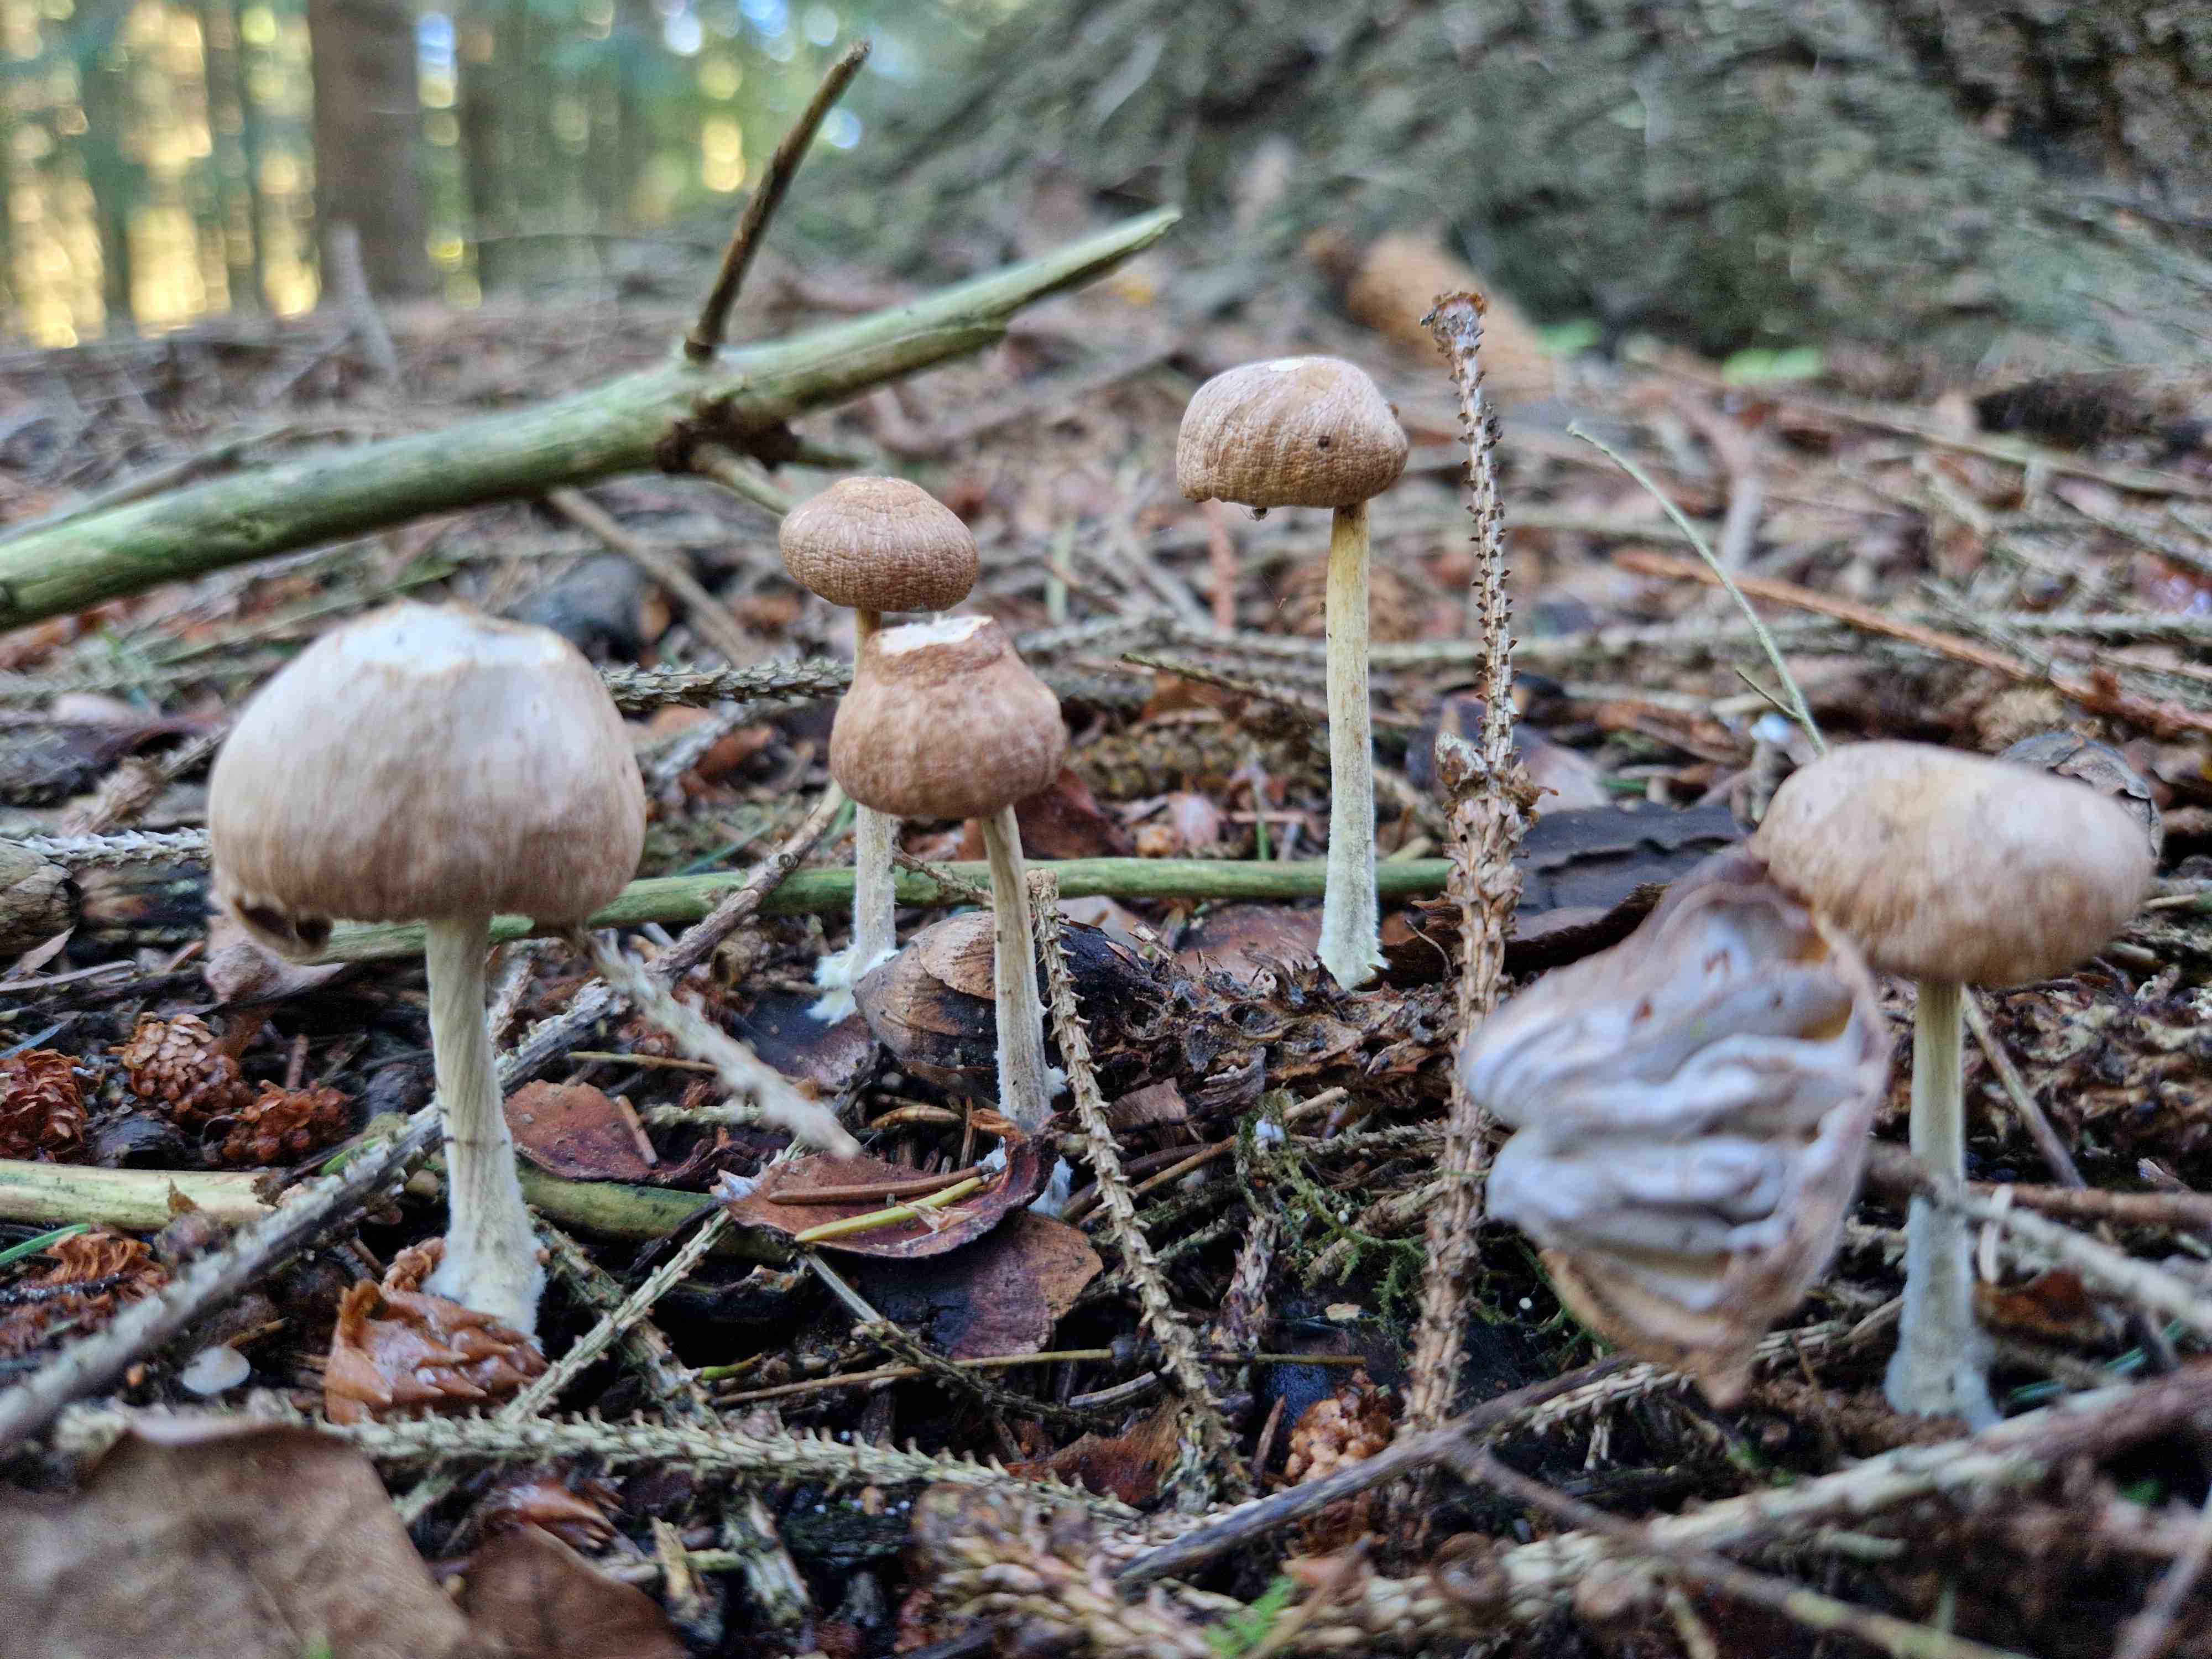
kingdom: Fungi
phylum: Basidiomycota
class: Agaricomycetes
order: Agaricales
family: Omphalotaceae
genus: Collybiopsis
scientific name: Collybiopsis peronata
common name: bestøvlet fladhat
